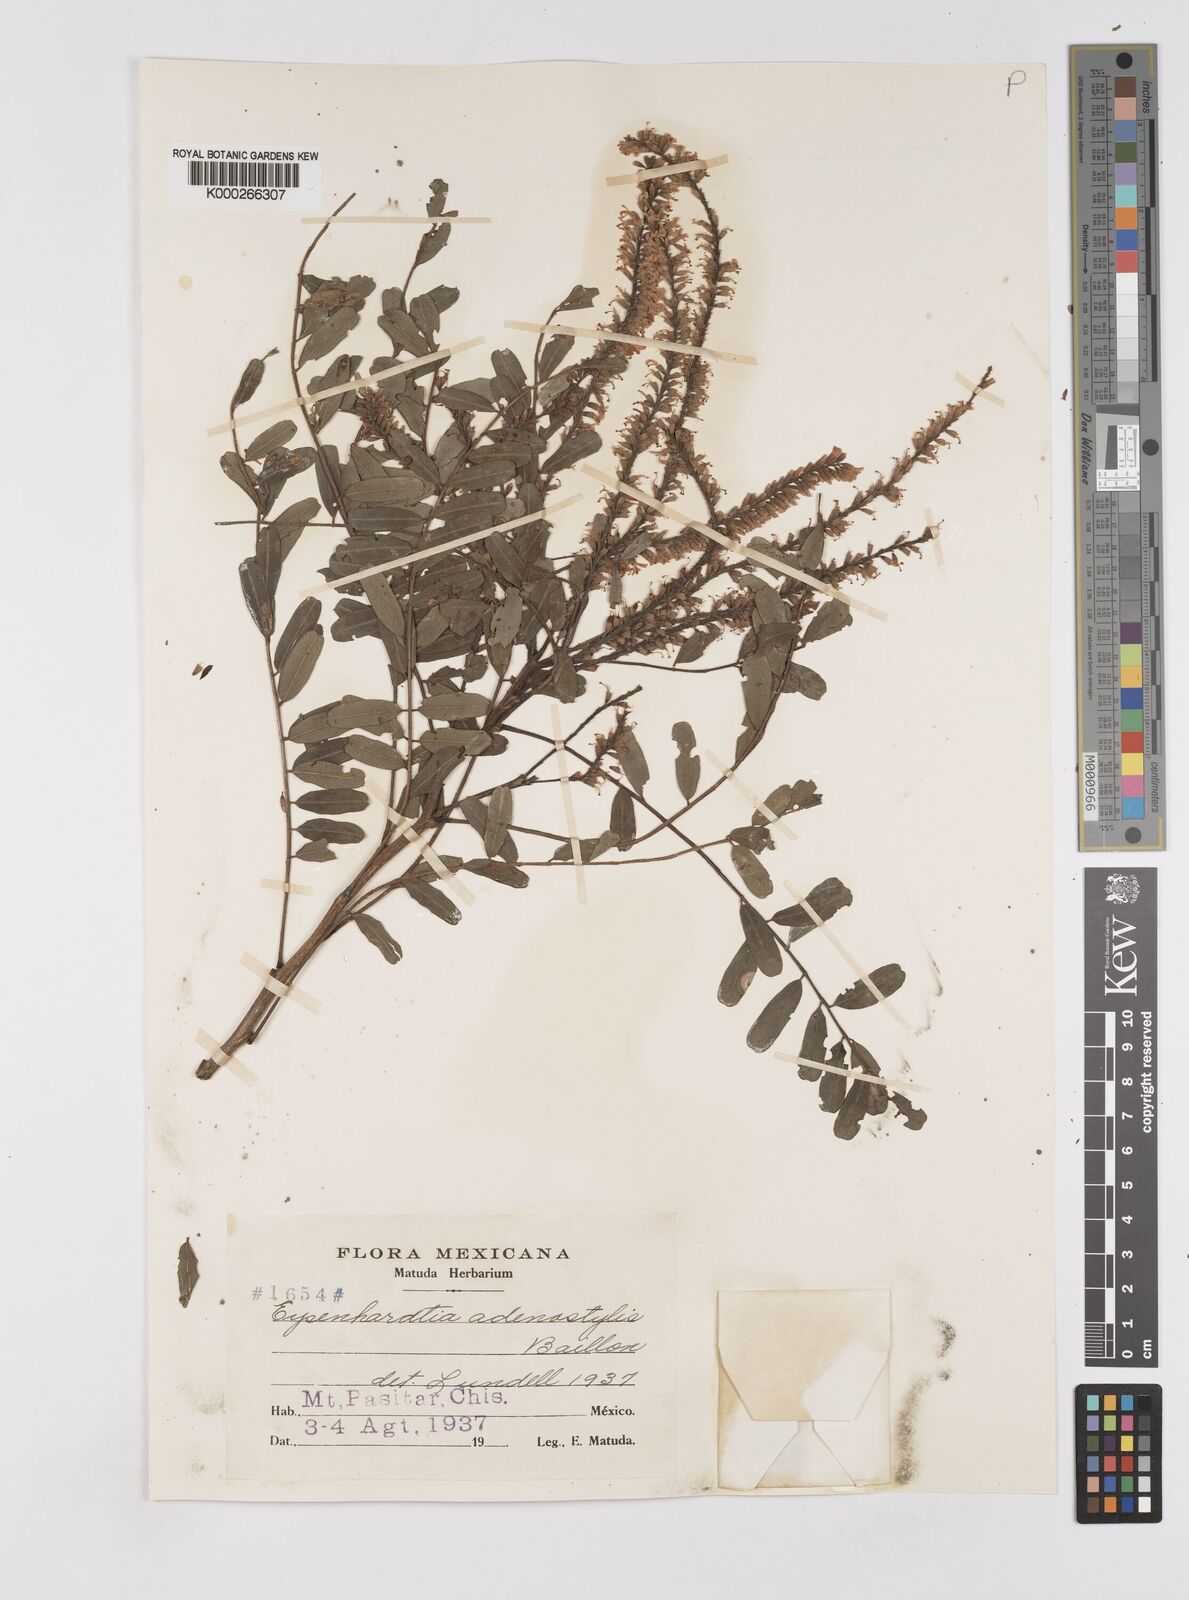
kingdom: Plantae
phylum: Tracheophyta
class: Magnoliopsida
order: Fabales
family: Fabaceae
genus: Eysenhardtia
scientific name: Eysenhardtia adenostylis
